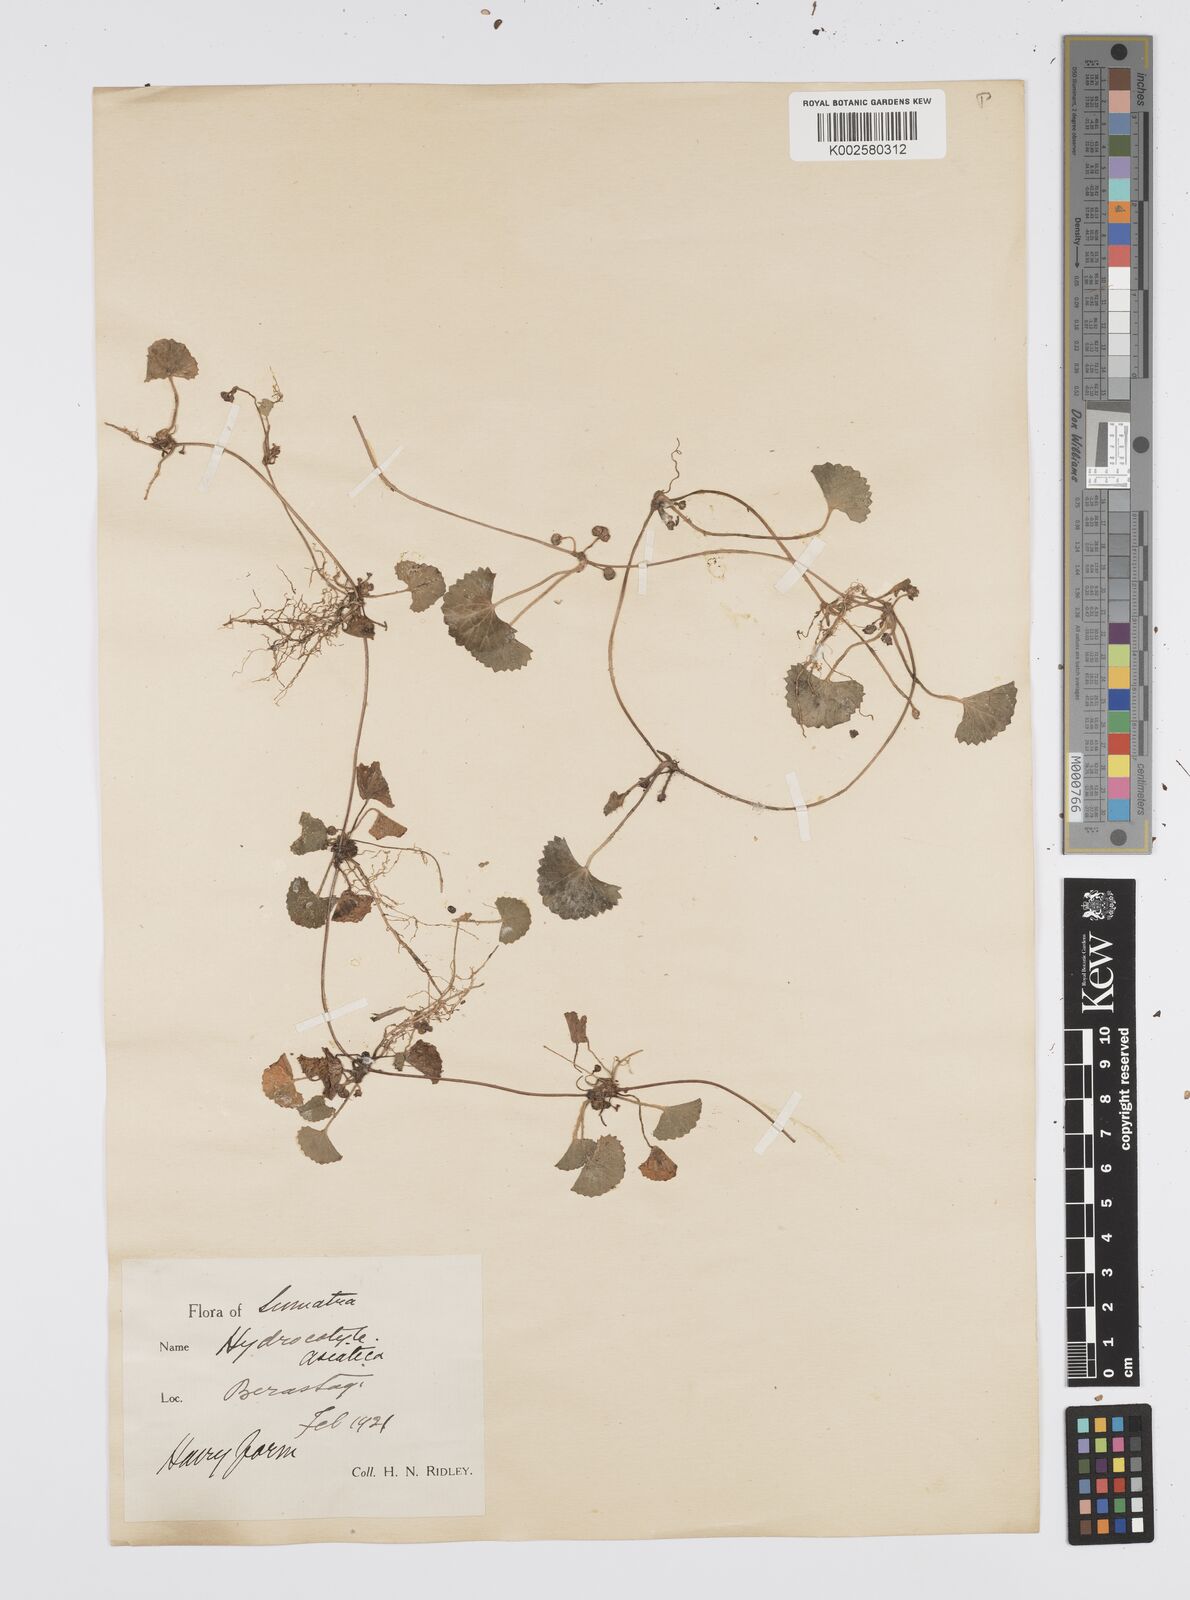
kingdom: Plantae
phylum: Tracheophyta
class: Magnoliopsida
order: Apiales
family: Apiaceae
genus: Centella
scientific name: Centella asiatica
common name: Spadeleaf
